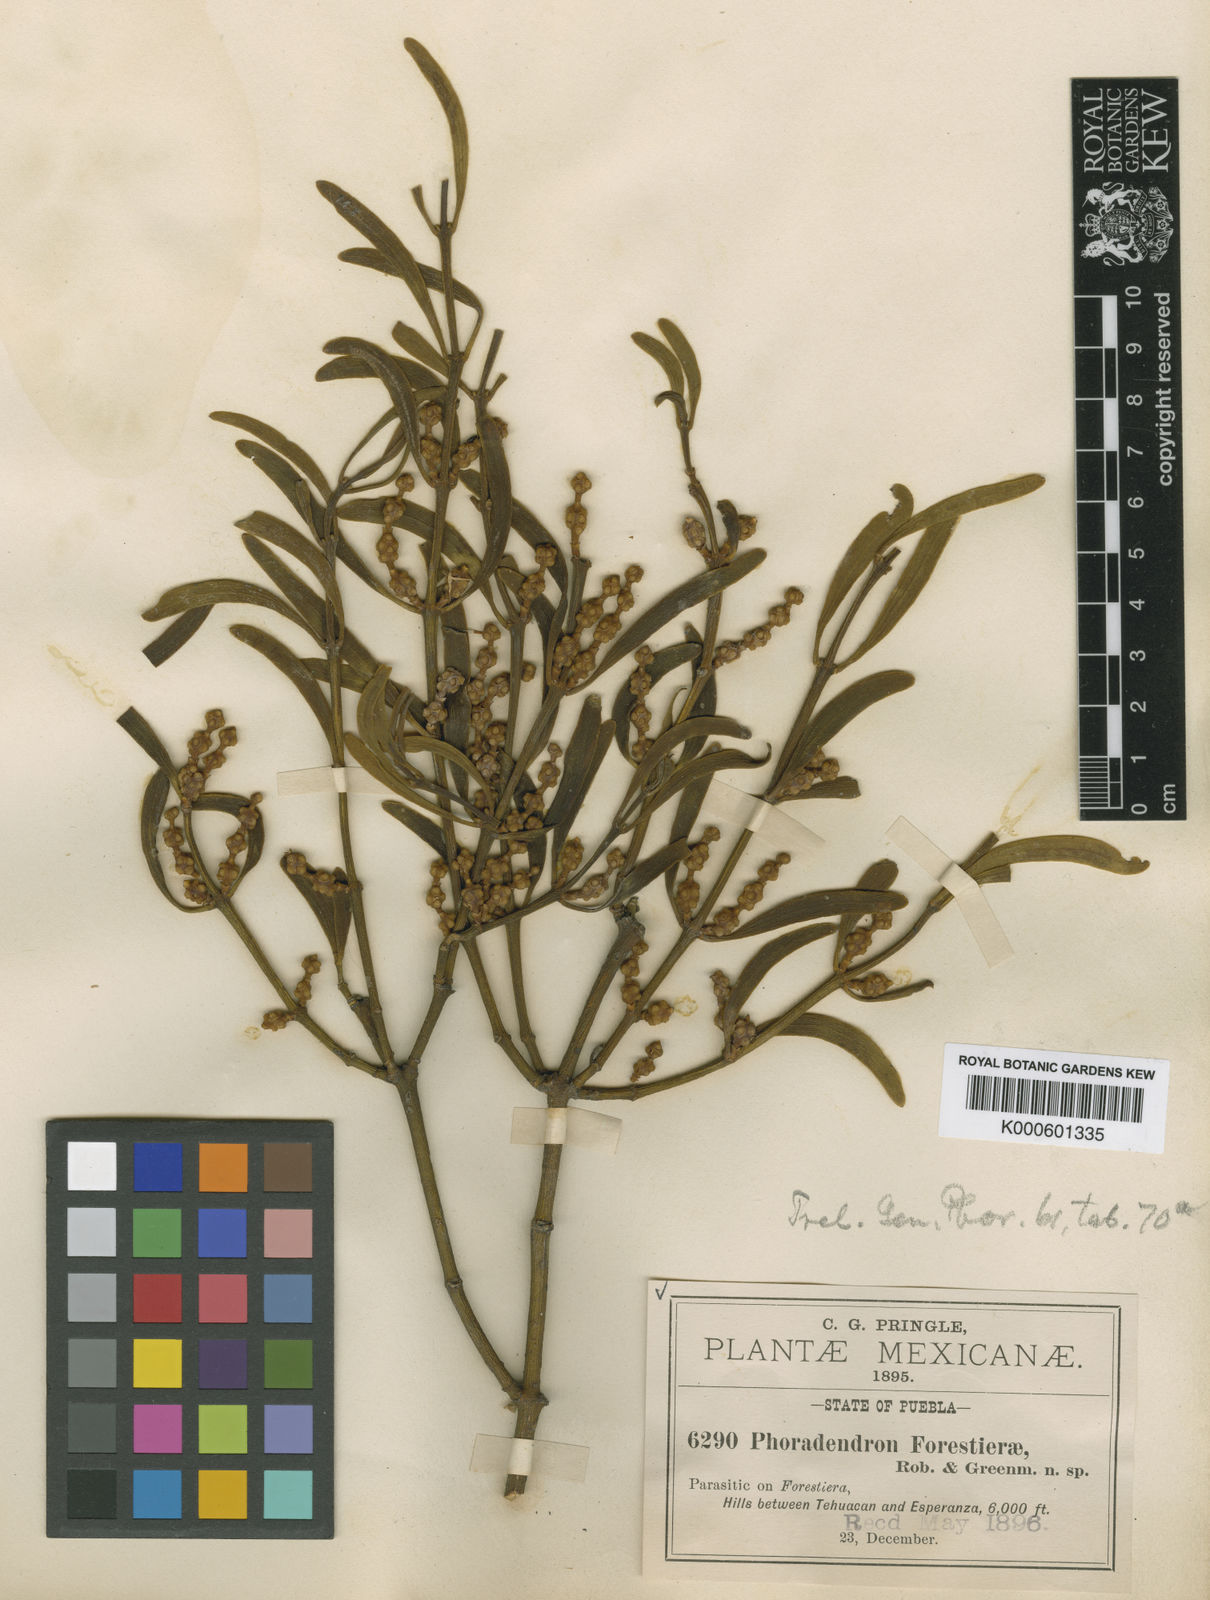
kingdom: Plantae
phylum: Tracheophyta
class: Magnoliopsida
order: Santalales
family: Viscaceae
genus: Phoradendron
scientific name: Phoradendron forestierae
